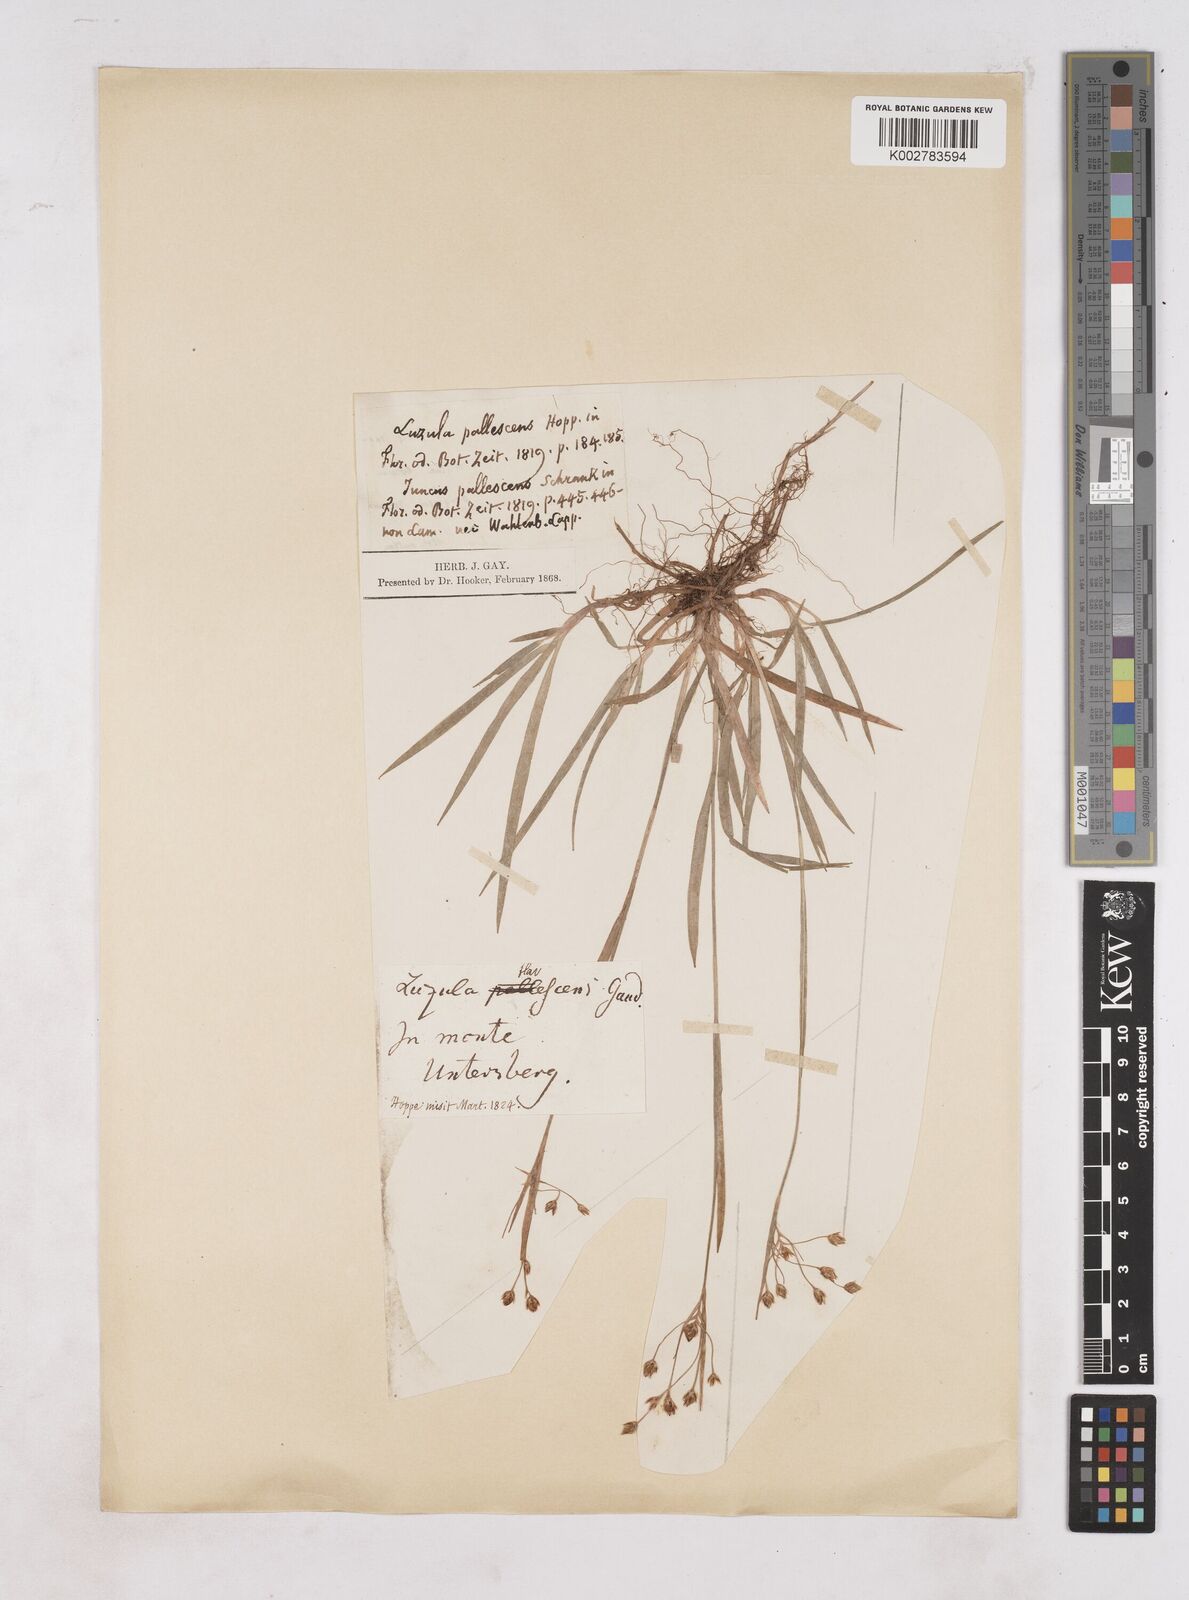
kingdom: Plantae
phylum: Tracheophyta
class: Liliopsida
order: Poales
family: Juncaceae
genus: Luzula
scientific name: Luzula
